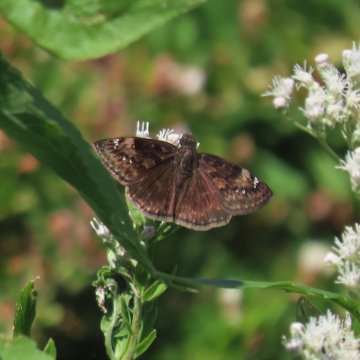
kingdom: Animalia
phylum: Arthropoda
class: Insecta
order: Lepidoptera
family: Hesperiidae
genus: Gesta
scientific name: Gesta
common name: Horace's Duskywing
